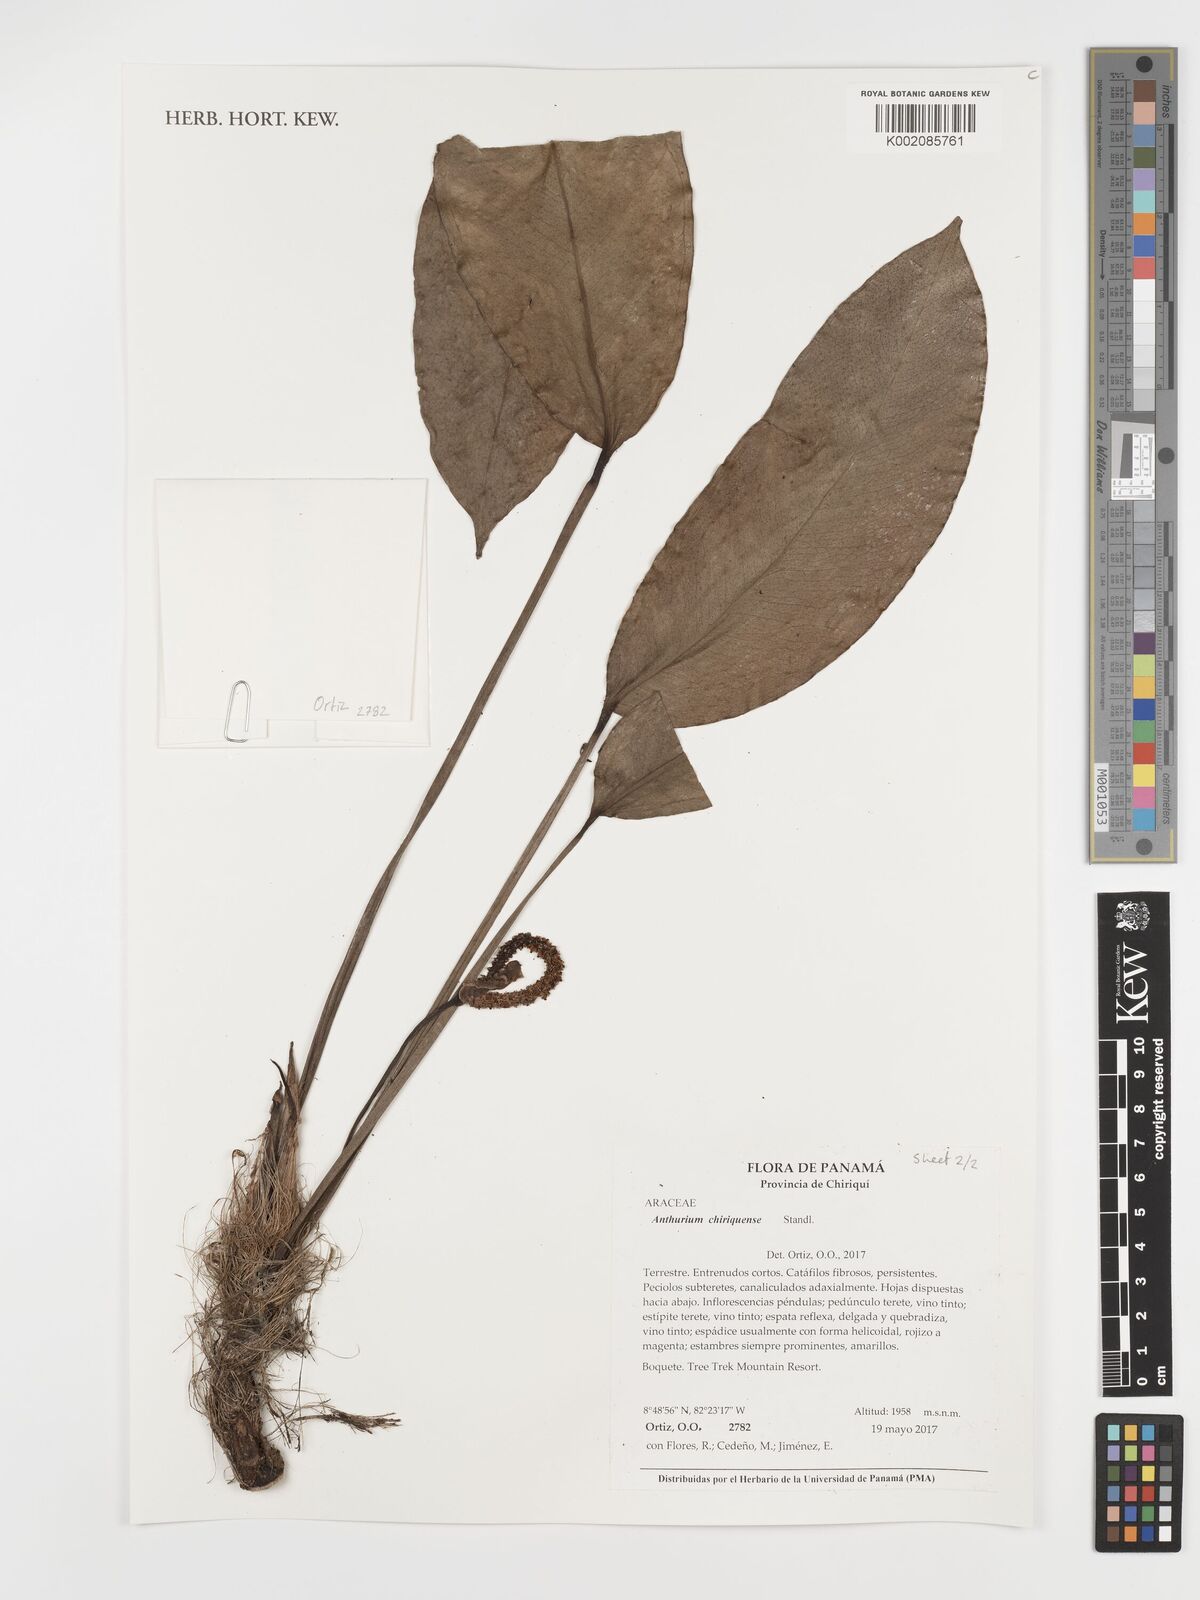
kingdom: Plantae
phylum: Tracheophyta
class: Liliopsida
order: Alismatales
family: Araceae
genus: Anthurium
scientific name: Anthurium chiriquense
